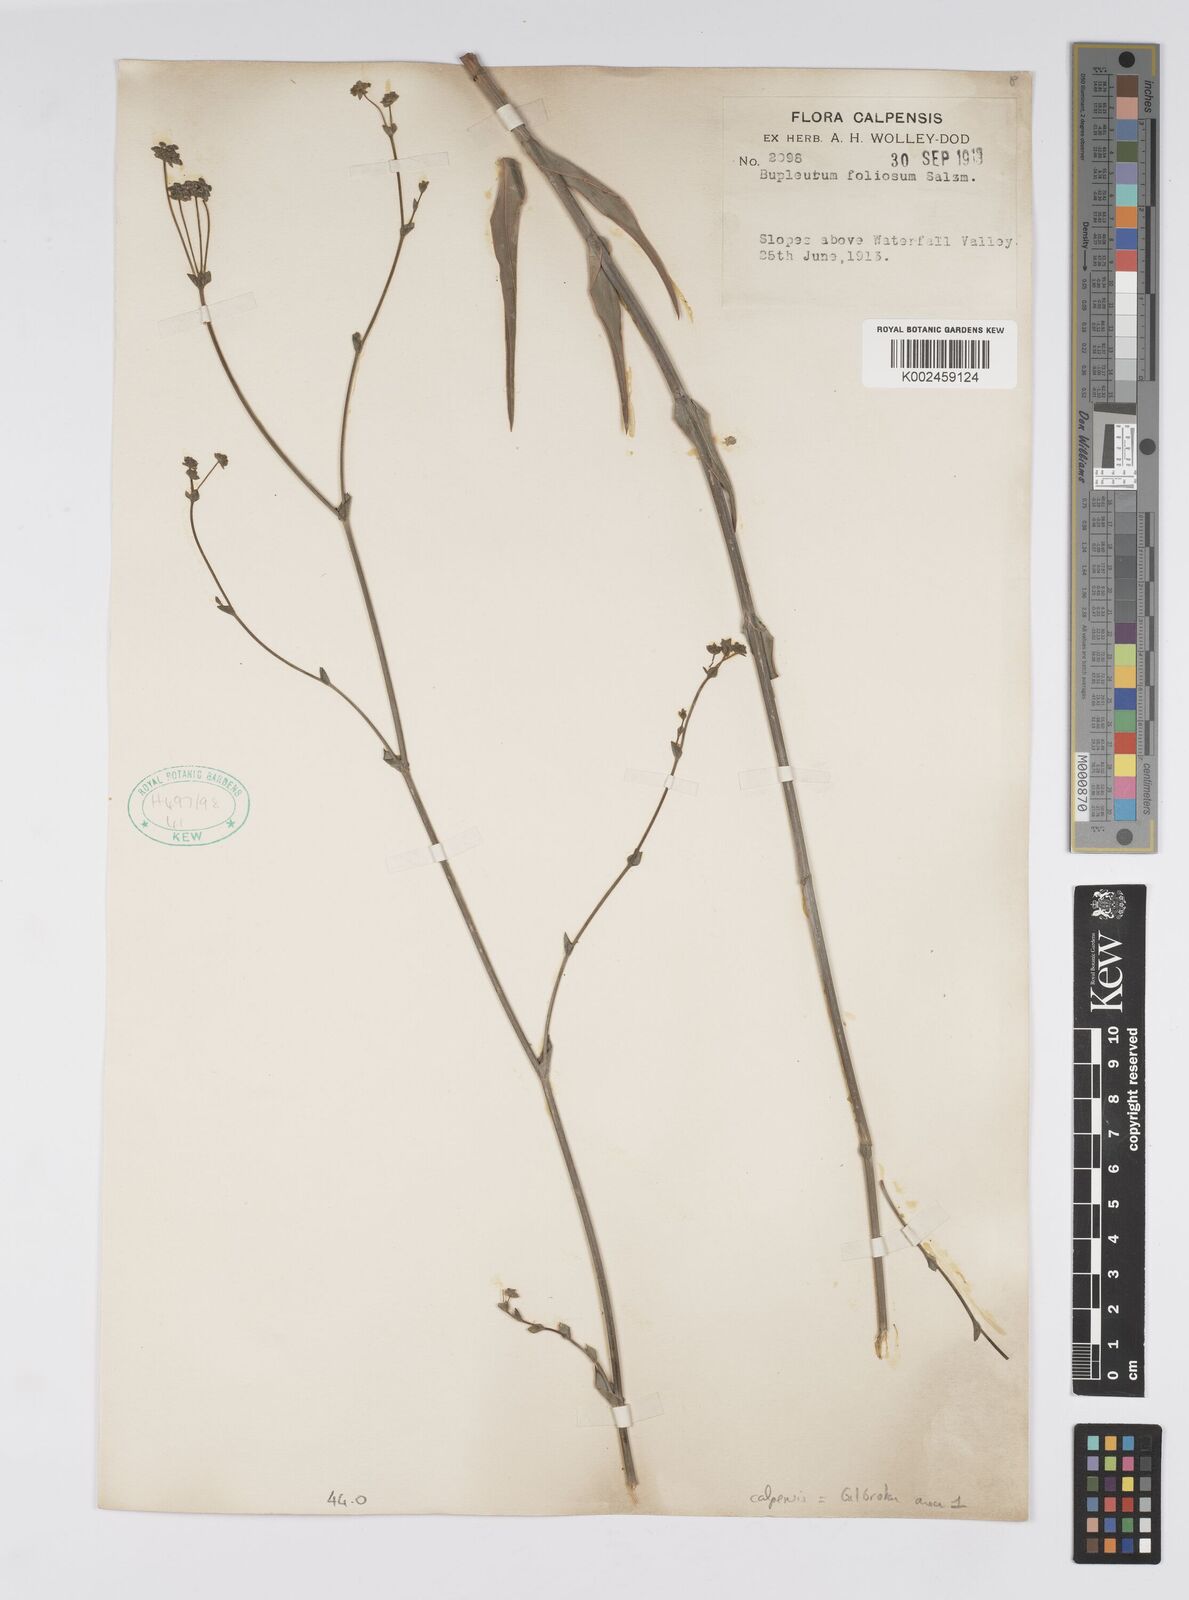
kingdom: Plantae
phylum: Tracheophyta
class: Magnoliopsida
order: Apiales
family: Apiaceae
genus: Bupleurum
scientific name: Bupleurum foliosum
